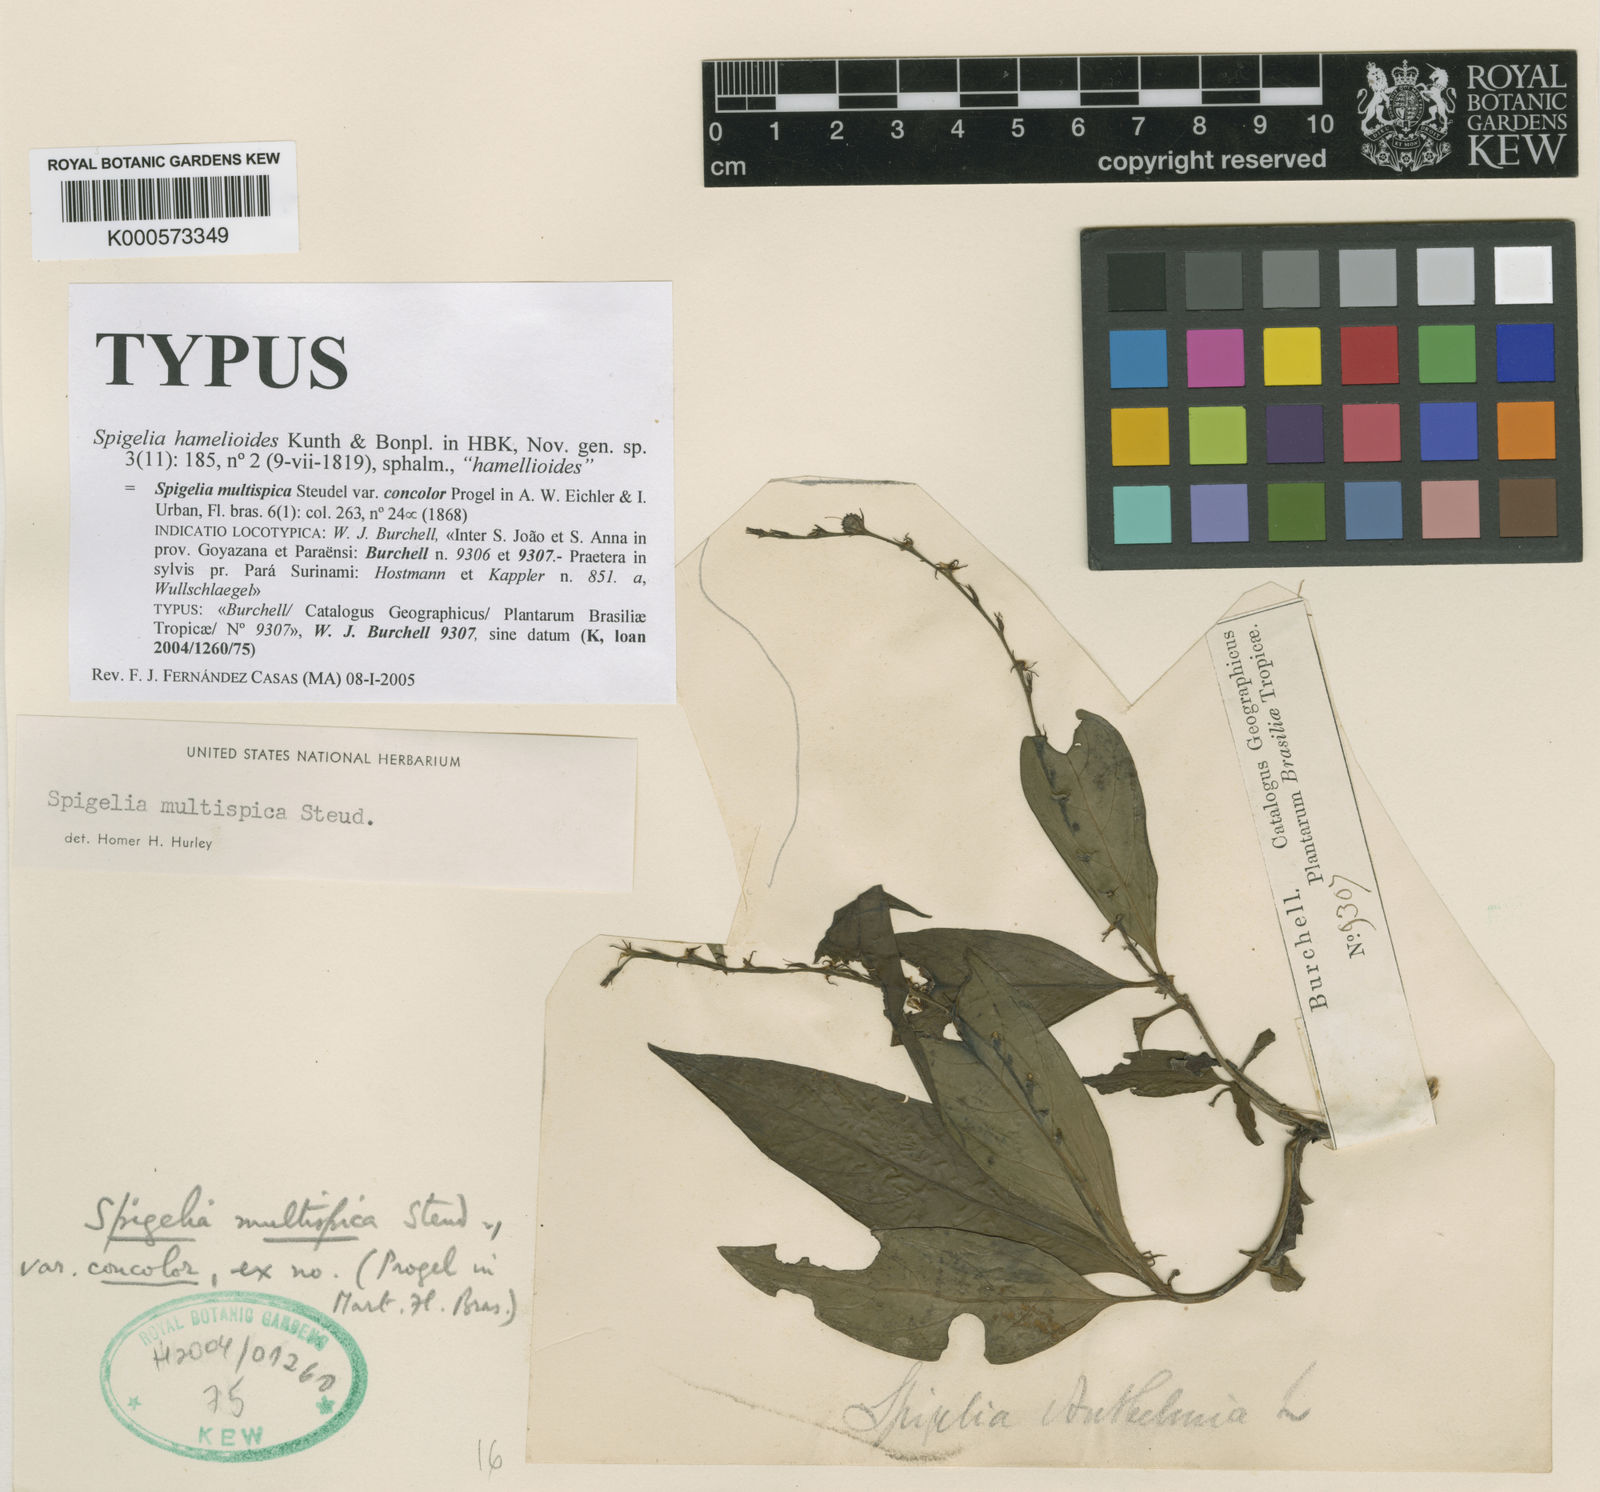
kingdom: Plantae
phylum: Tracheophyta
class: Magnoliopsida
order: Gentianales
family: Loganiaceae
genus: Spigelia
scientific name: Spigelia hamellioides
